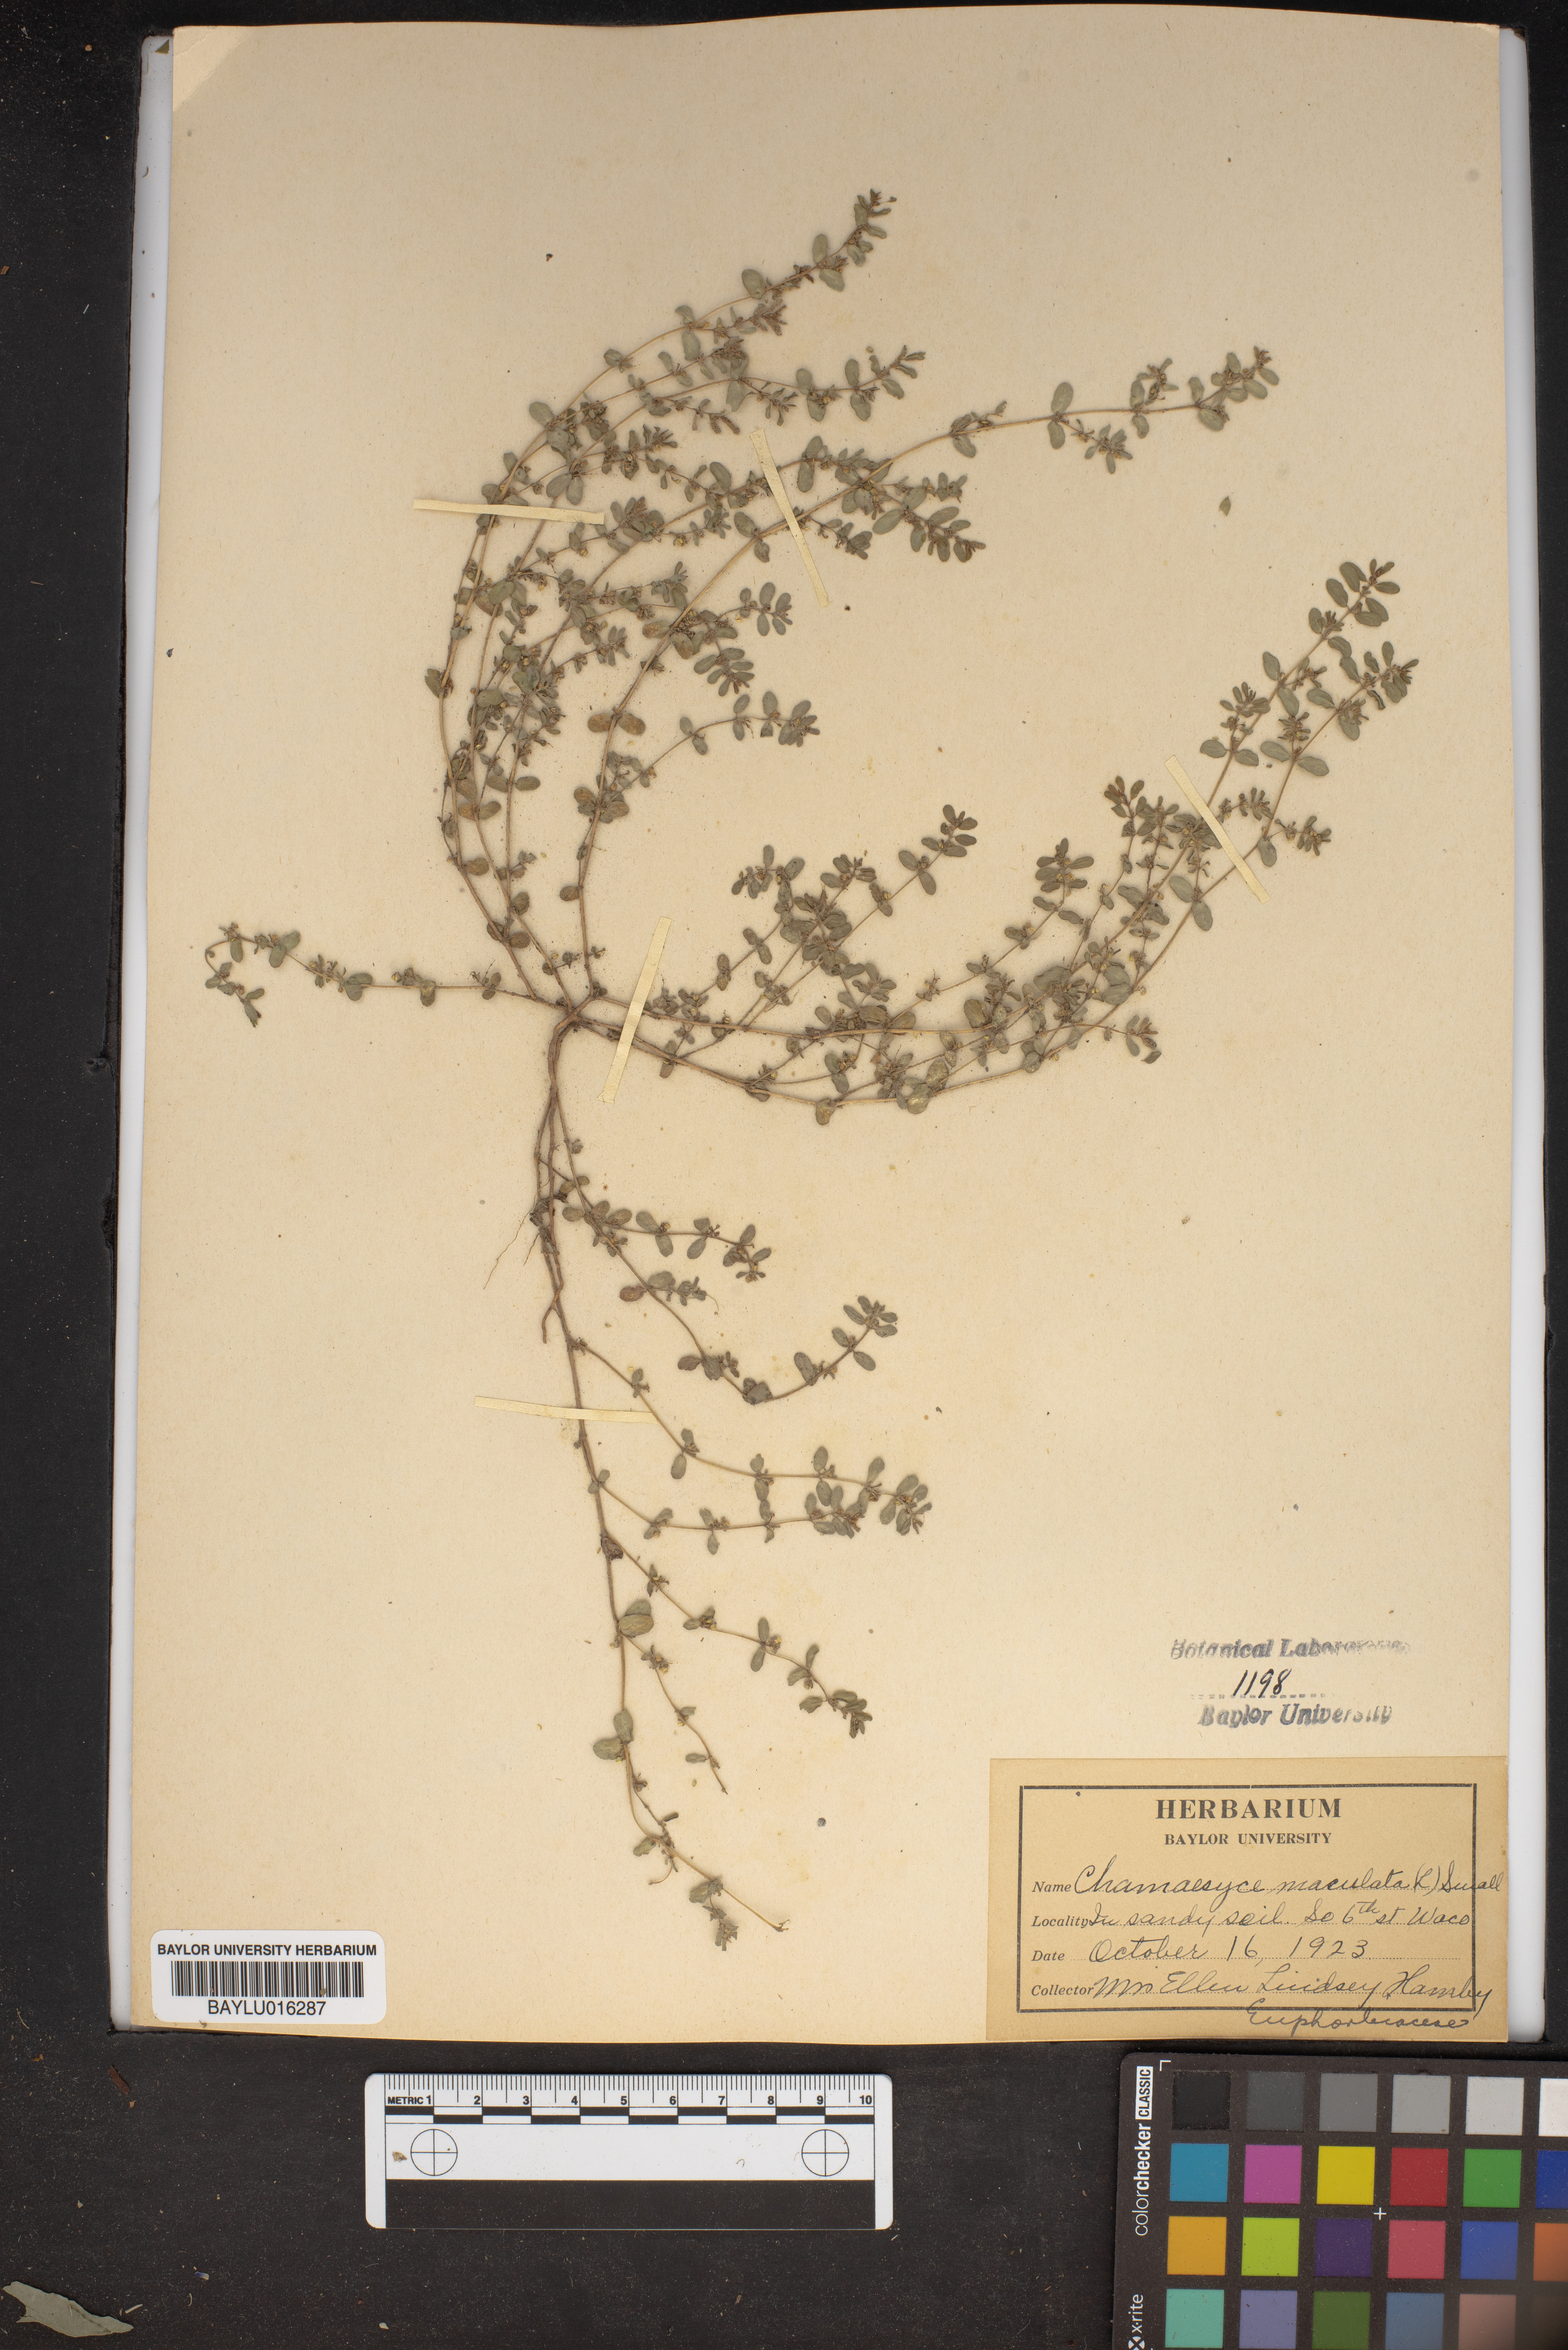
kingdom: Plantae
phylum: Tracheophyta
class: Magnoliopsida
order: Malpighiales
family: Euphorbiaceae
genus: Euphorbia
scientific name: Euphorbia maculata
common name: Spotted spurge
